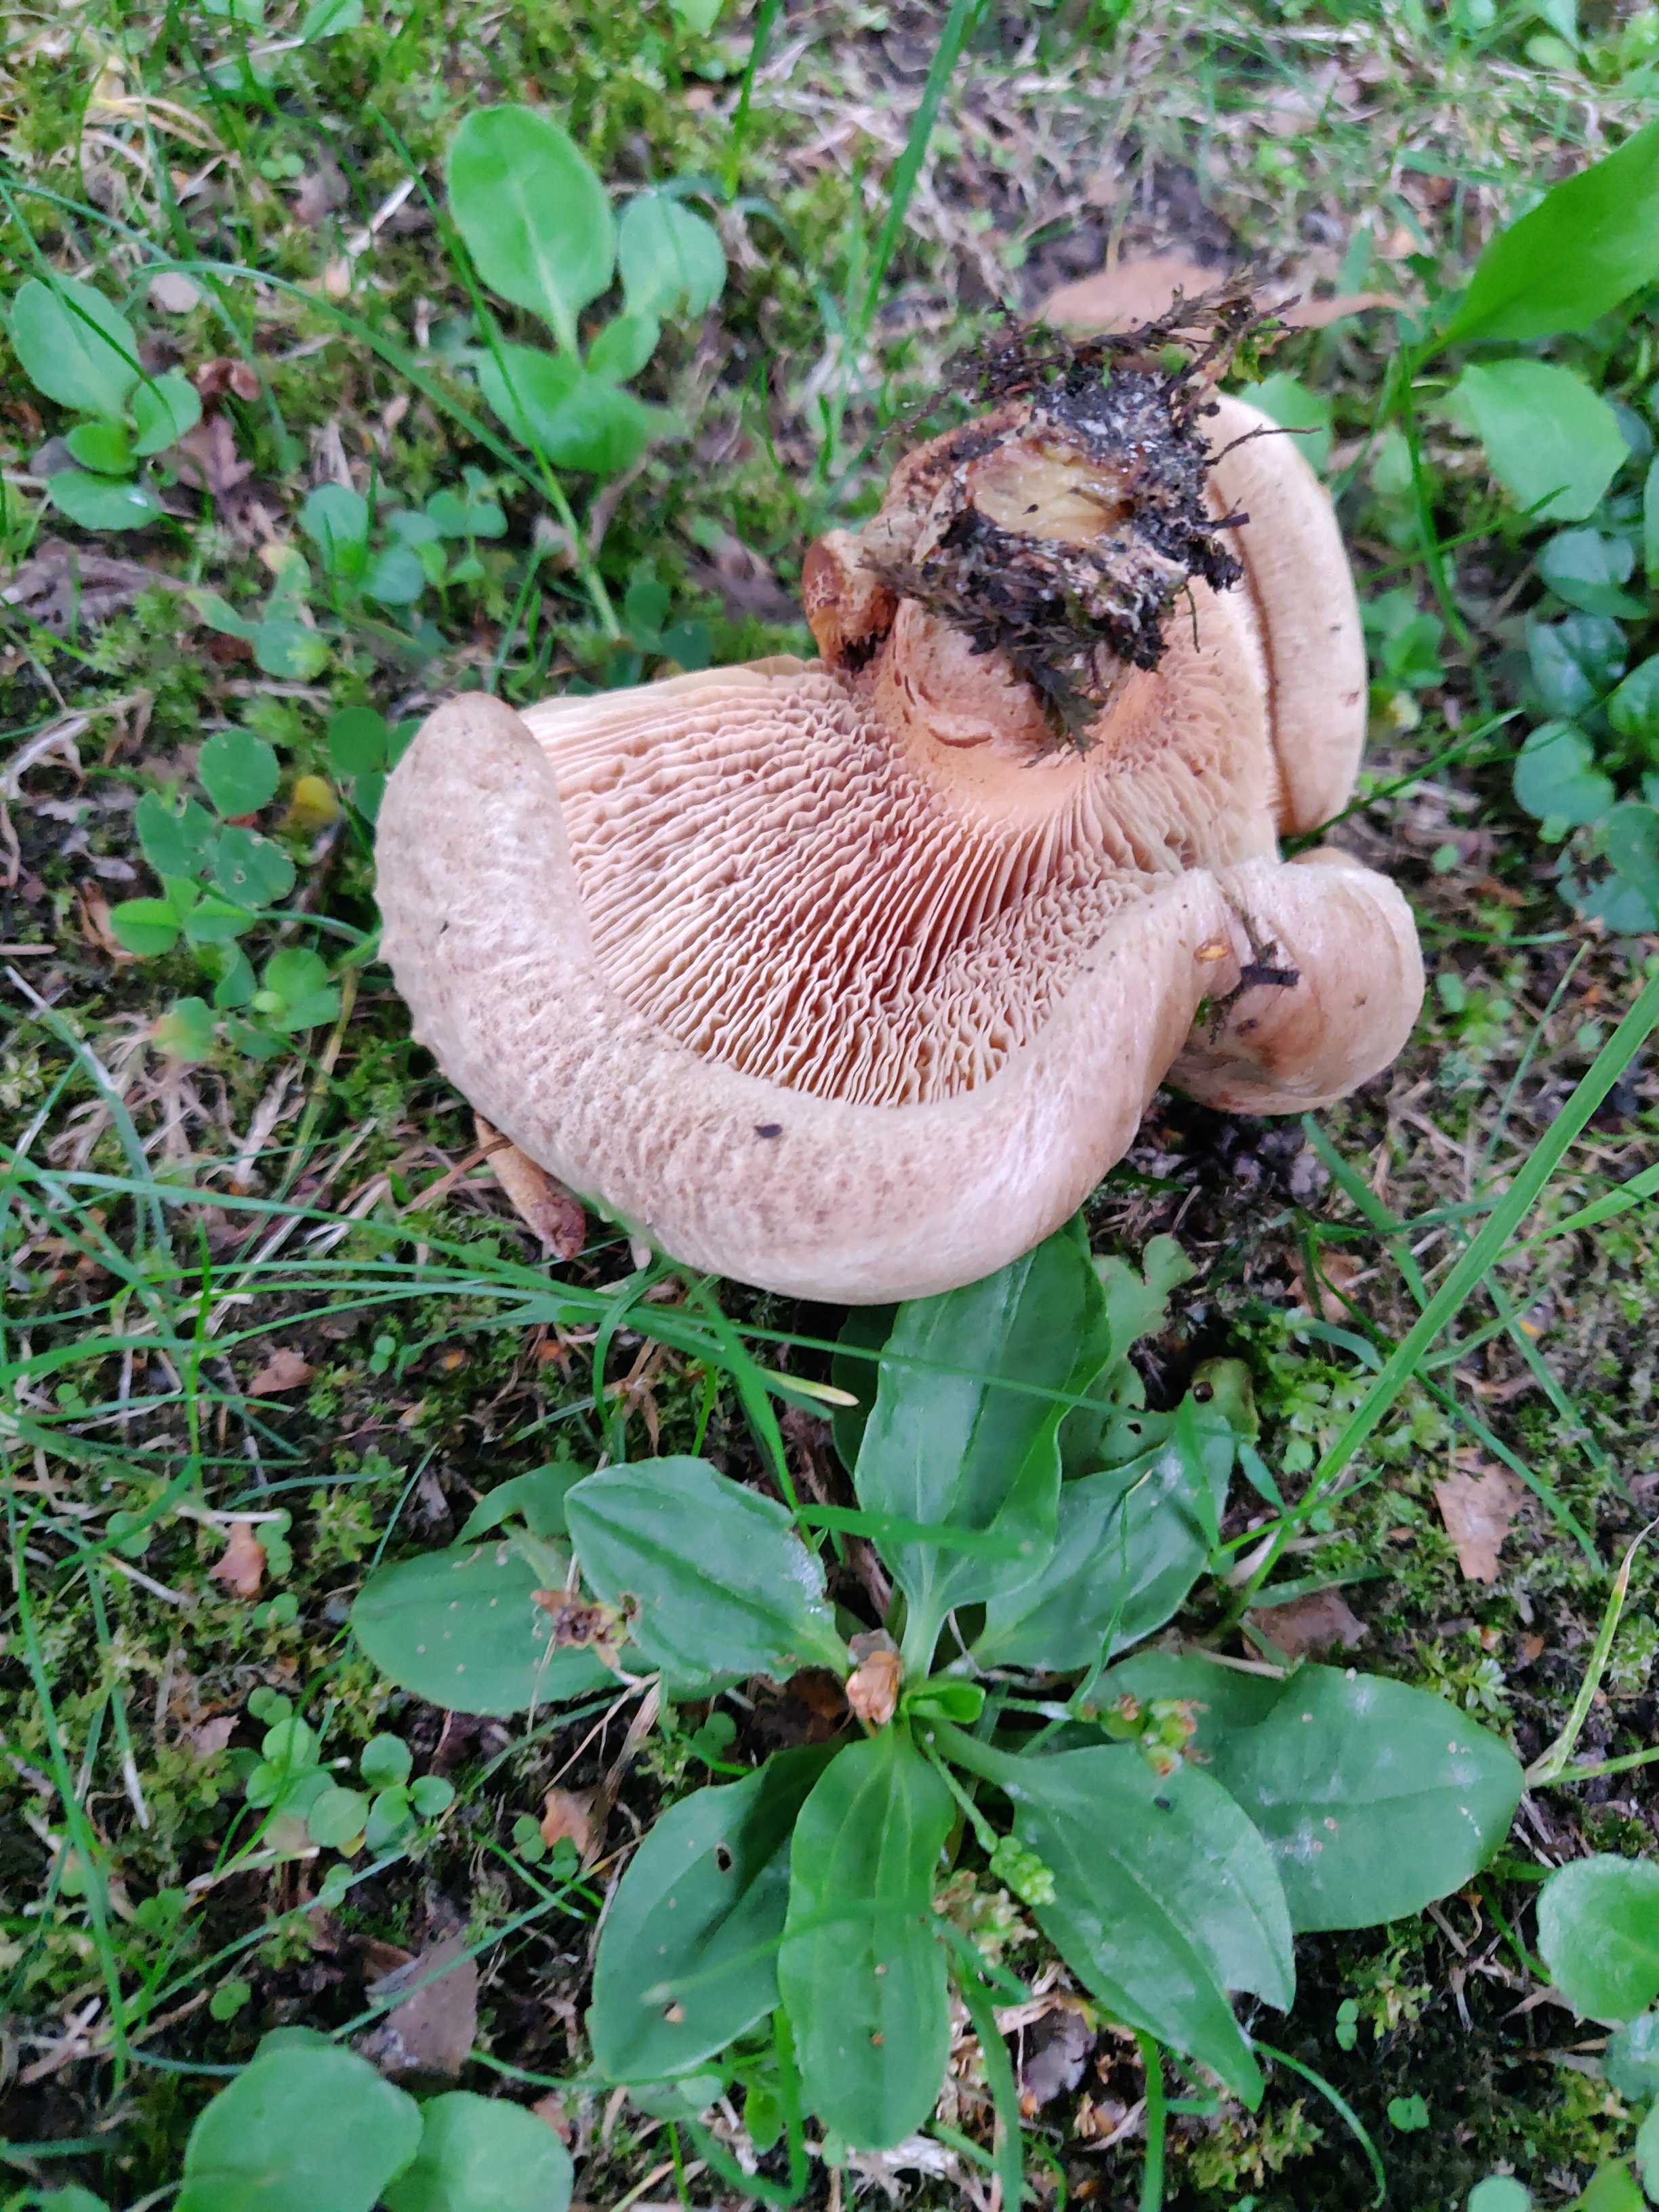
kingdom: Fungi
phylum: Basidiomycota
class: Agaricomycetes
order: Boletales
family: Paxillaceae
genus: Paxillus
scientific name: Paxillus
